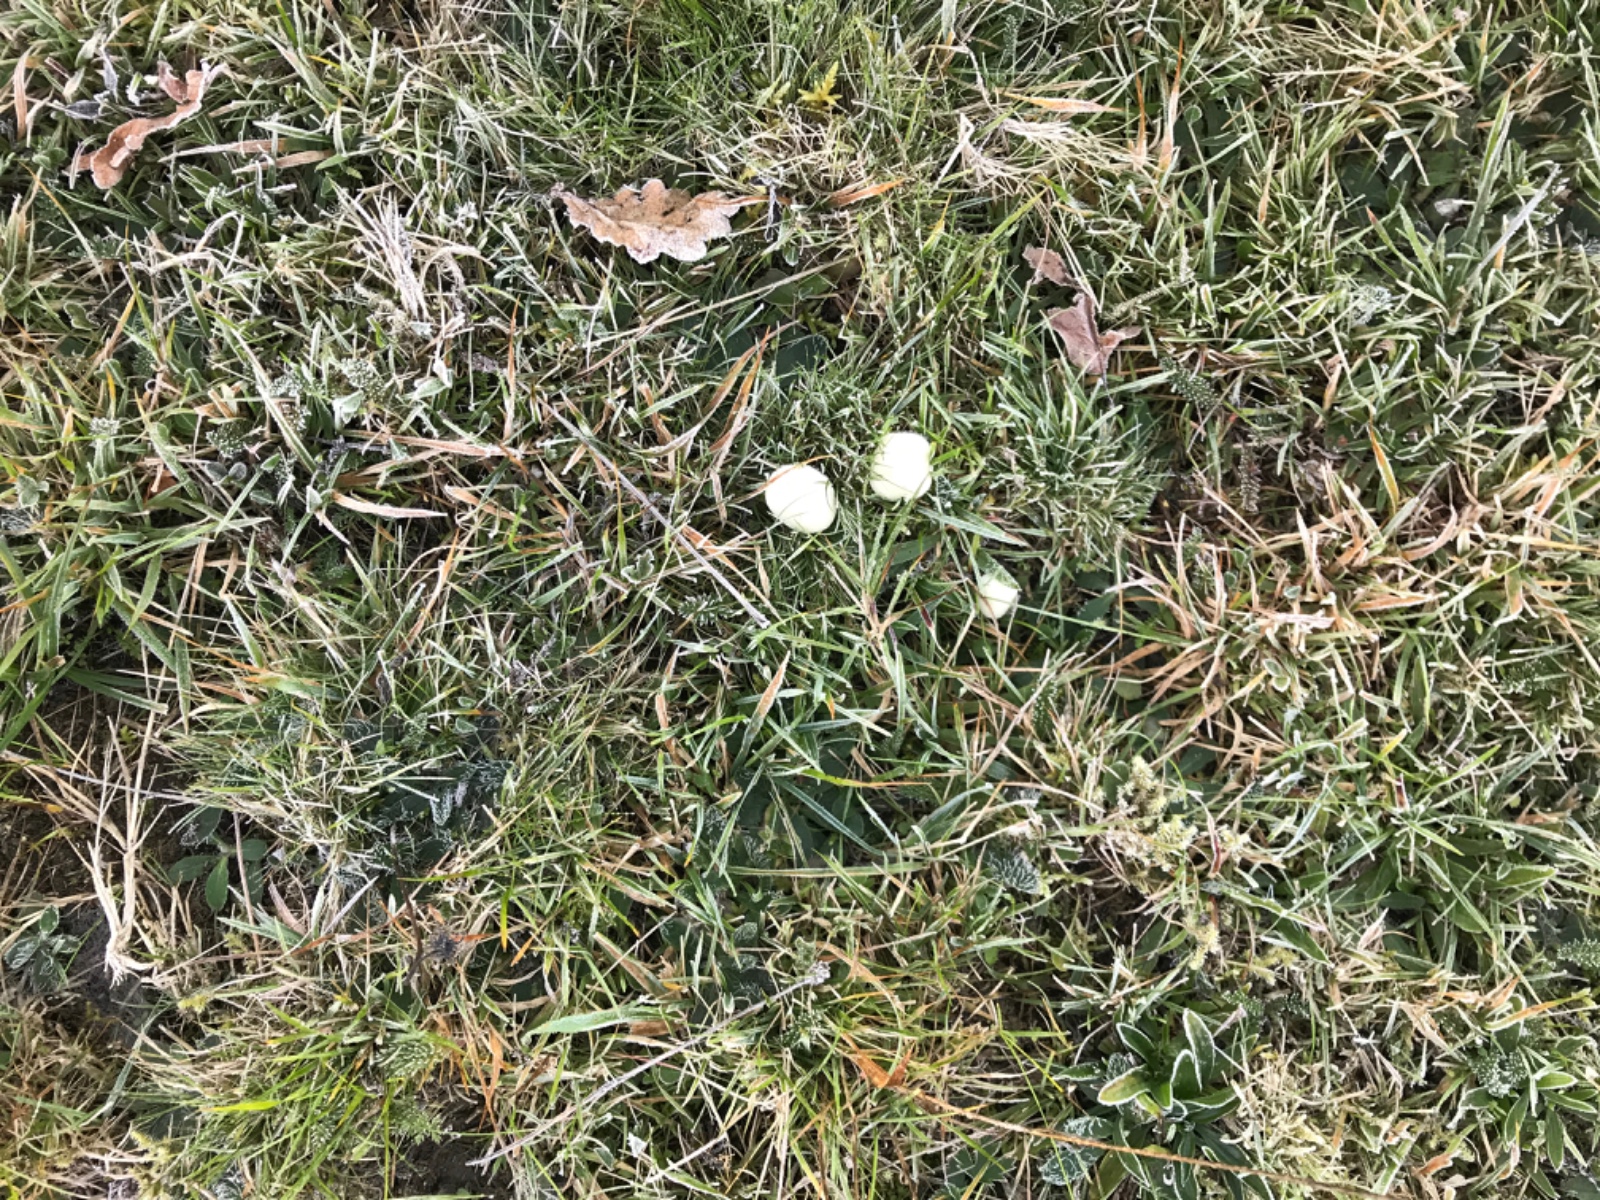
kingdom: Fungi
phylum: Basidiomycota
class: Agaricomycetes
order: Agaricales
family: Hygrophoraceae
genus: Cuphophyllus
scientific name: Cuphophyllus virgineus
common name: snehvid vokshat
